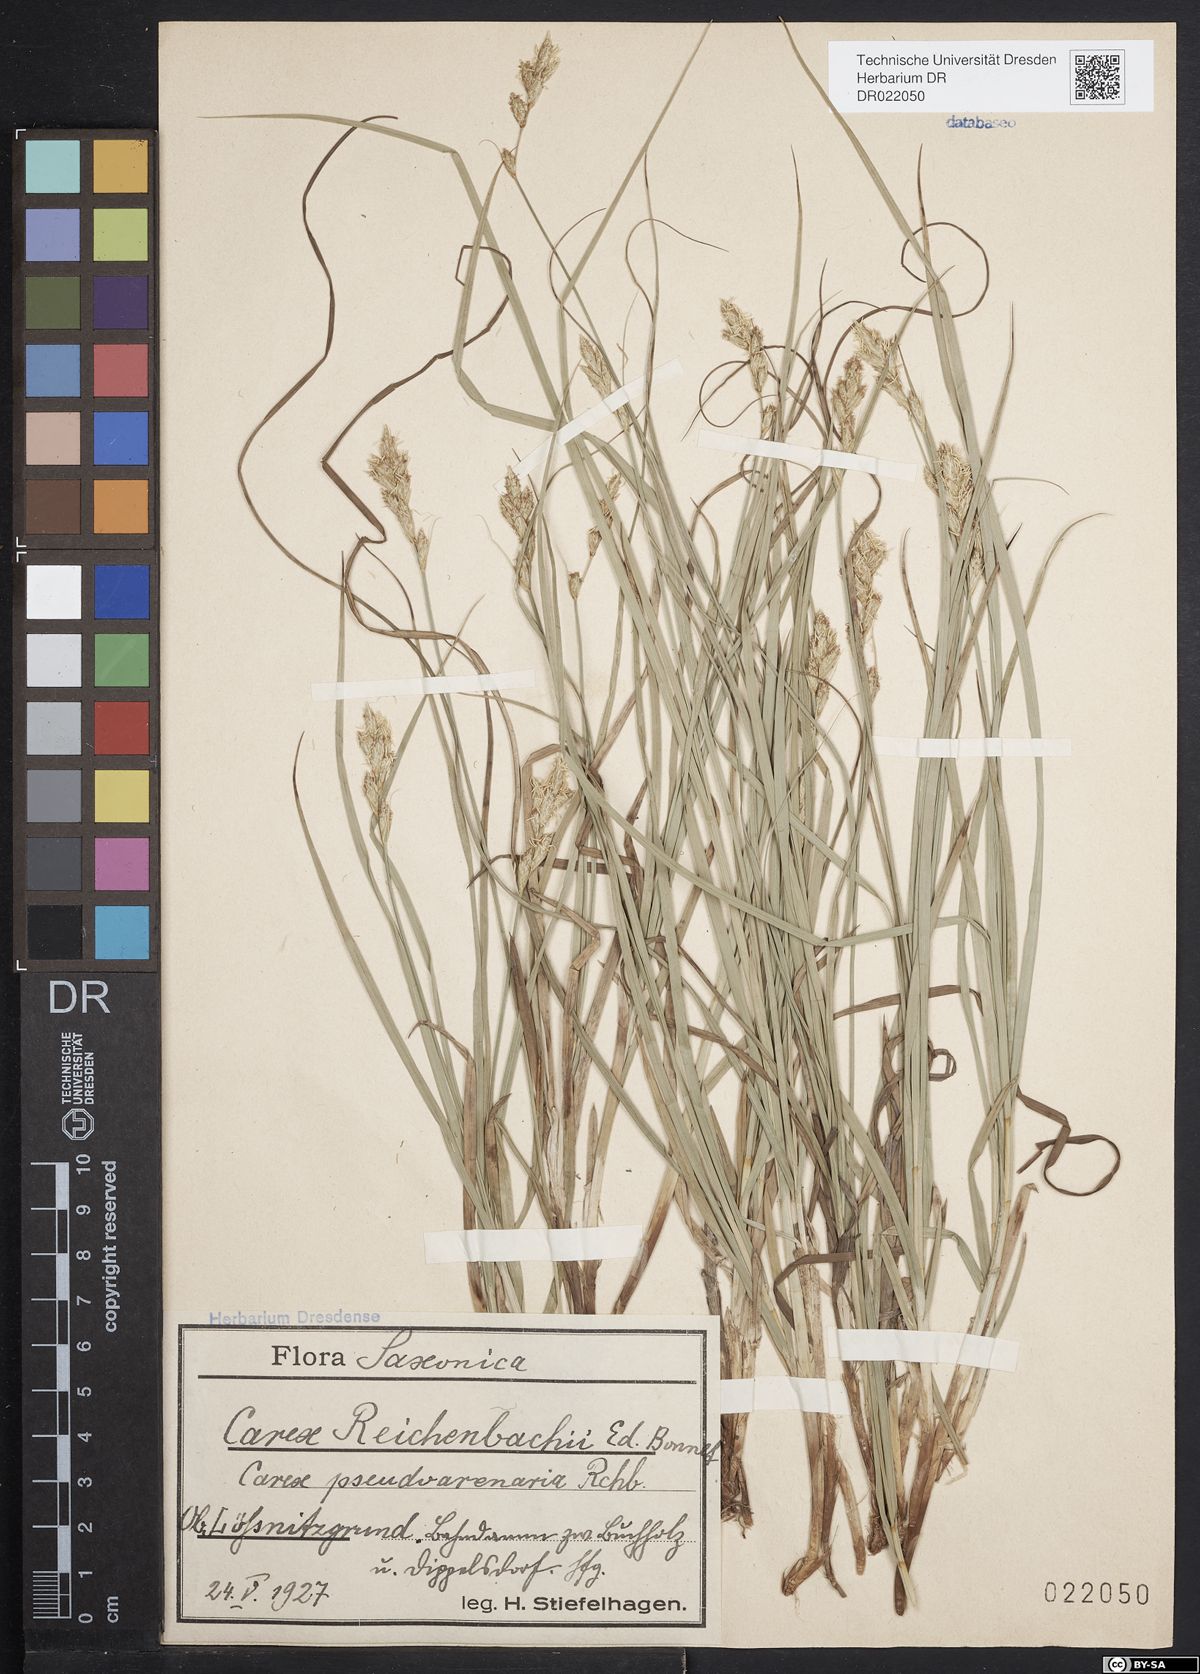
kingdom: Plantae
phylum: Tracheophyta
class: Liliopsida
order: Poales
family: Cyperaceae
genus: Carex
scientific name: Carex pseudobrizoides
